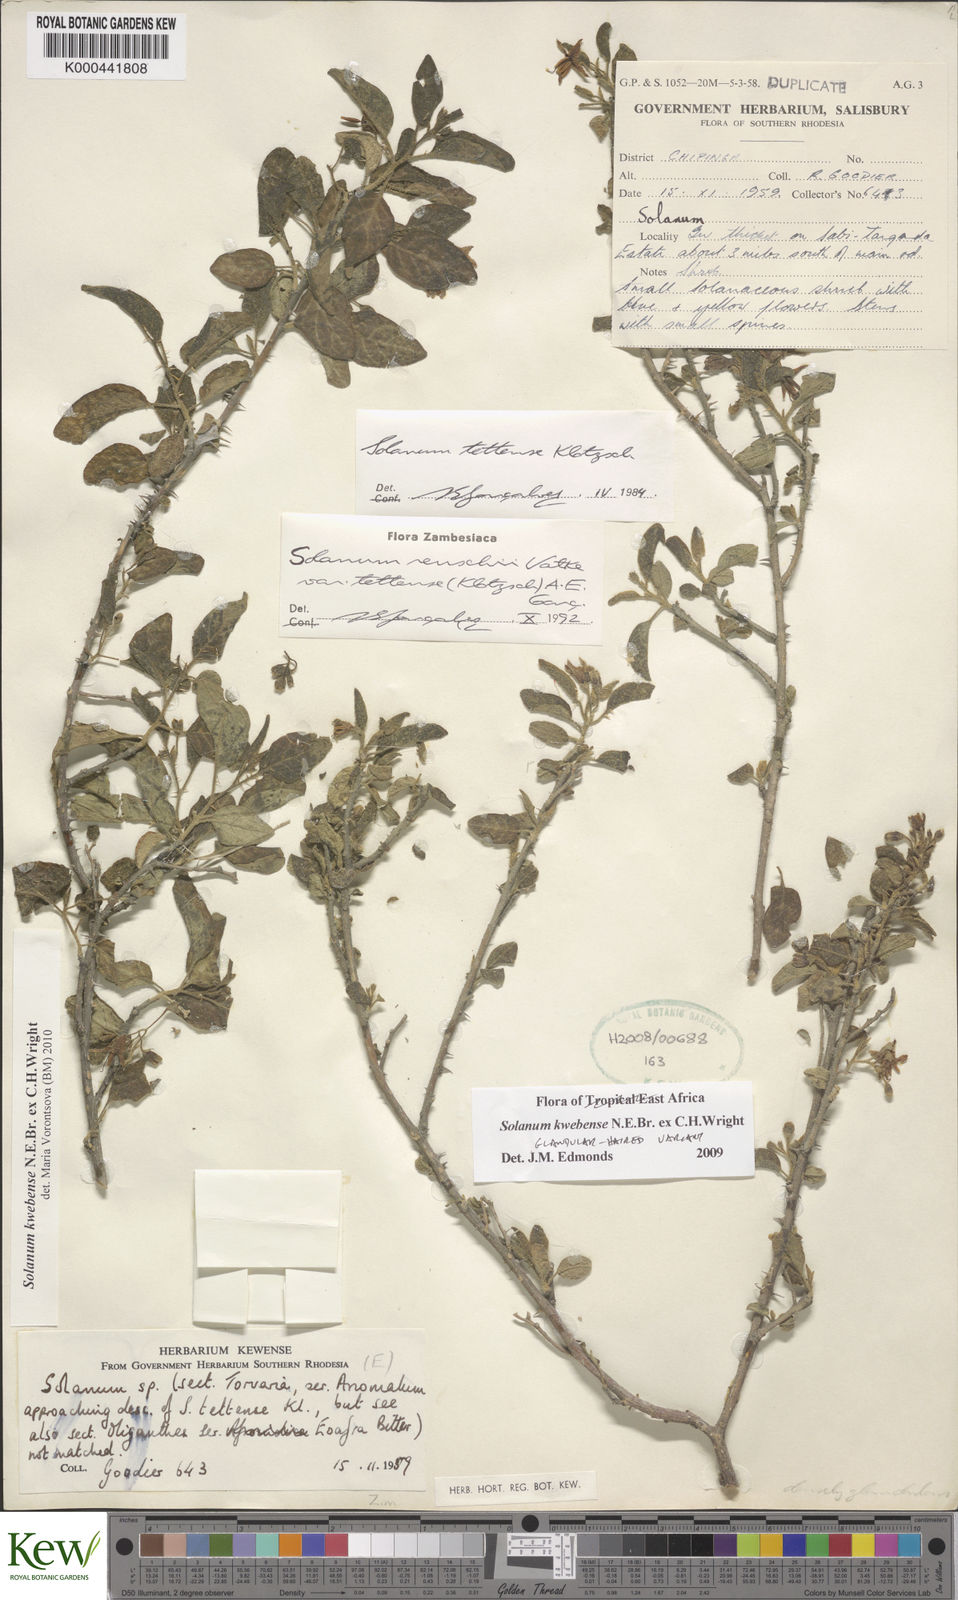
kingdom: Plantae
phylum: Tracheophyta
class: Magnoliopsida
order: Solanales
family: Solanaceae
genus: Solanum
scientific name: Solanum tettense
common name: Mozambique bitter apple
